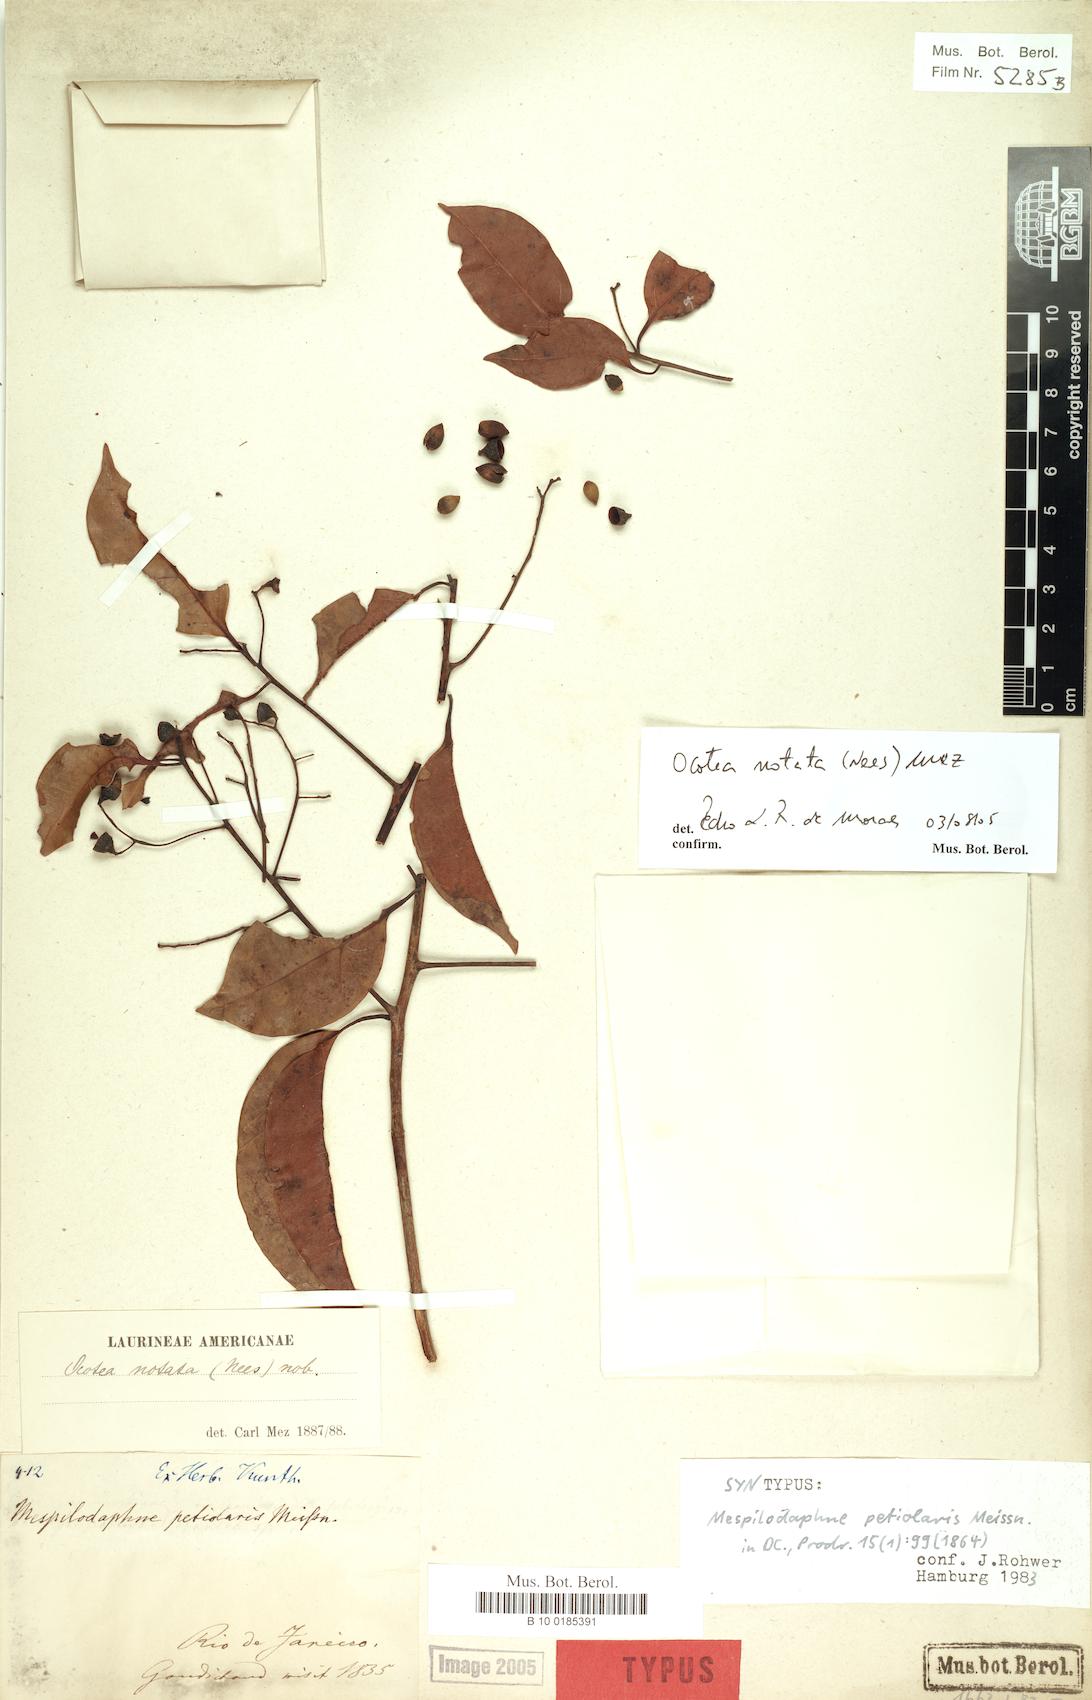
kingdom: Plantae
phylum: Tracheophyta
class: Magnoliopsida
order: Laurales
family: Lauraceae
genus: Mespilodaphne
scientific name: Mespilodaphne notata
